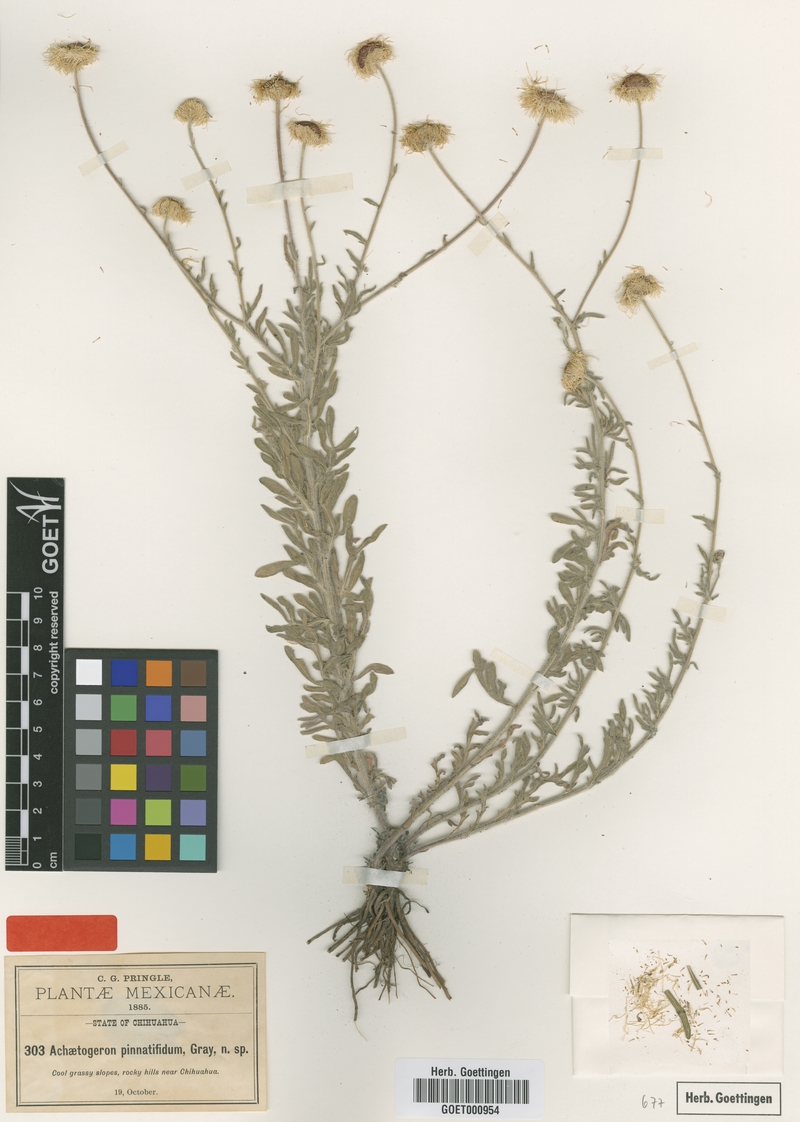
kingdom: Plantae
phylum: Tracheophyta
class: Magnoliopsida
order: Asterales
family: Asteraceae
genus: Erigeron
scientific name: Erigeron chihuahuanus
